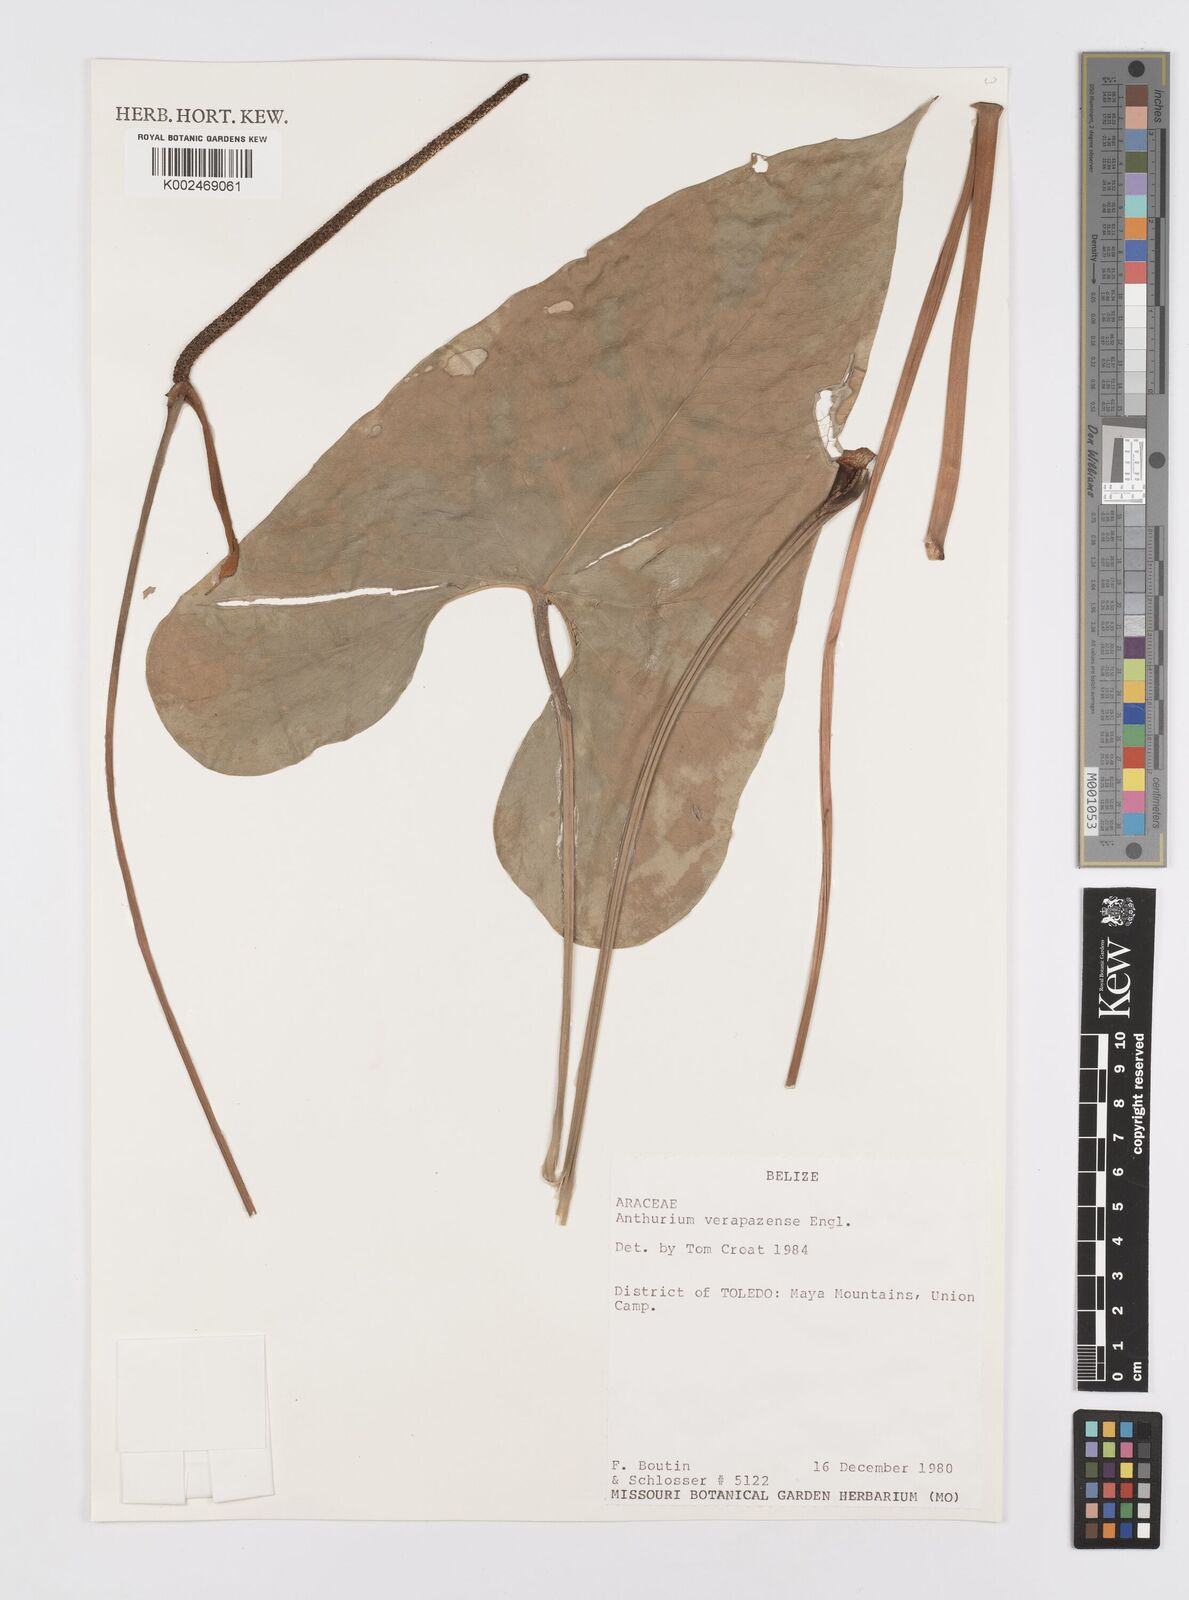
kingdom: Plantae
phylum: Tracheophyta
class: Liliopsida
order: Alismatales
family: Araceae
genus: Anthurium
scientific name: Anthurium verapazense
